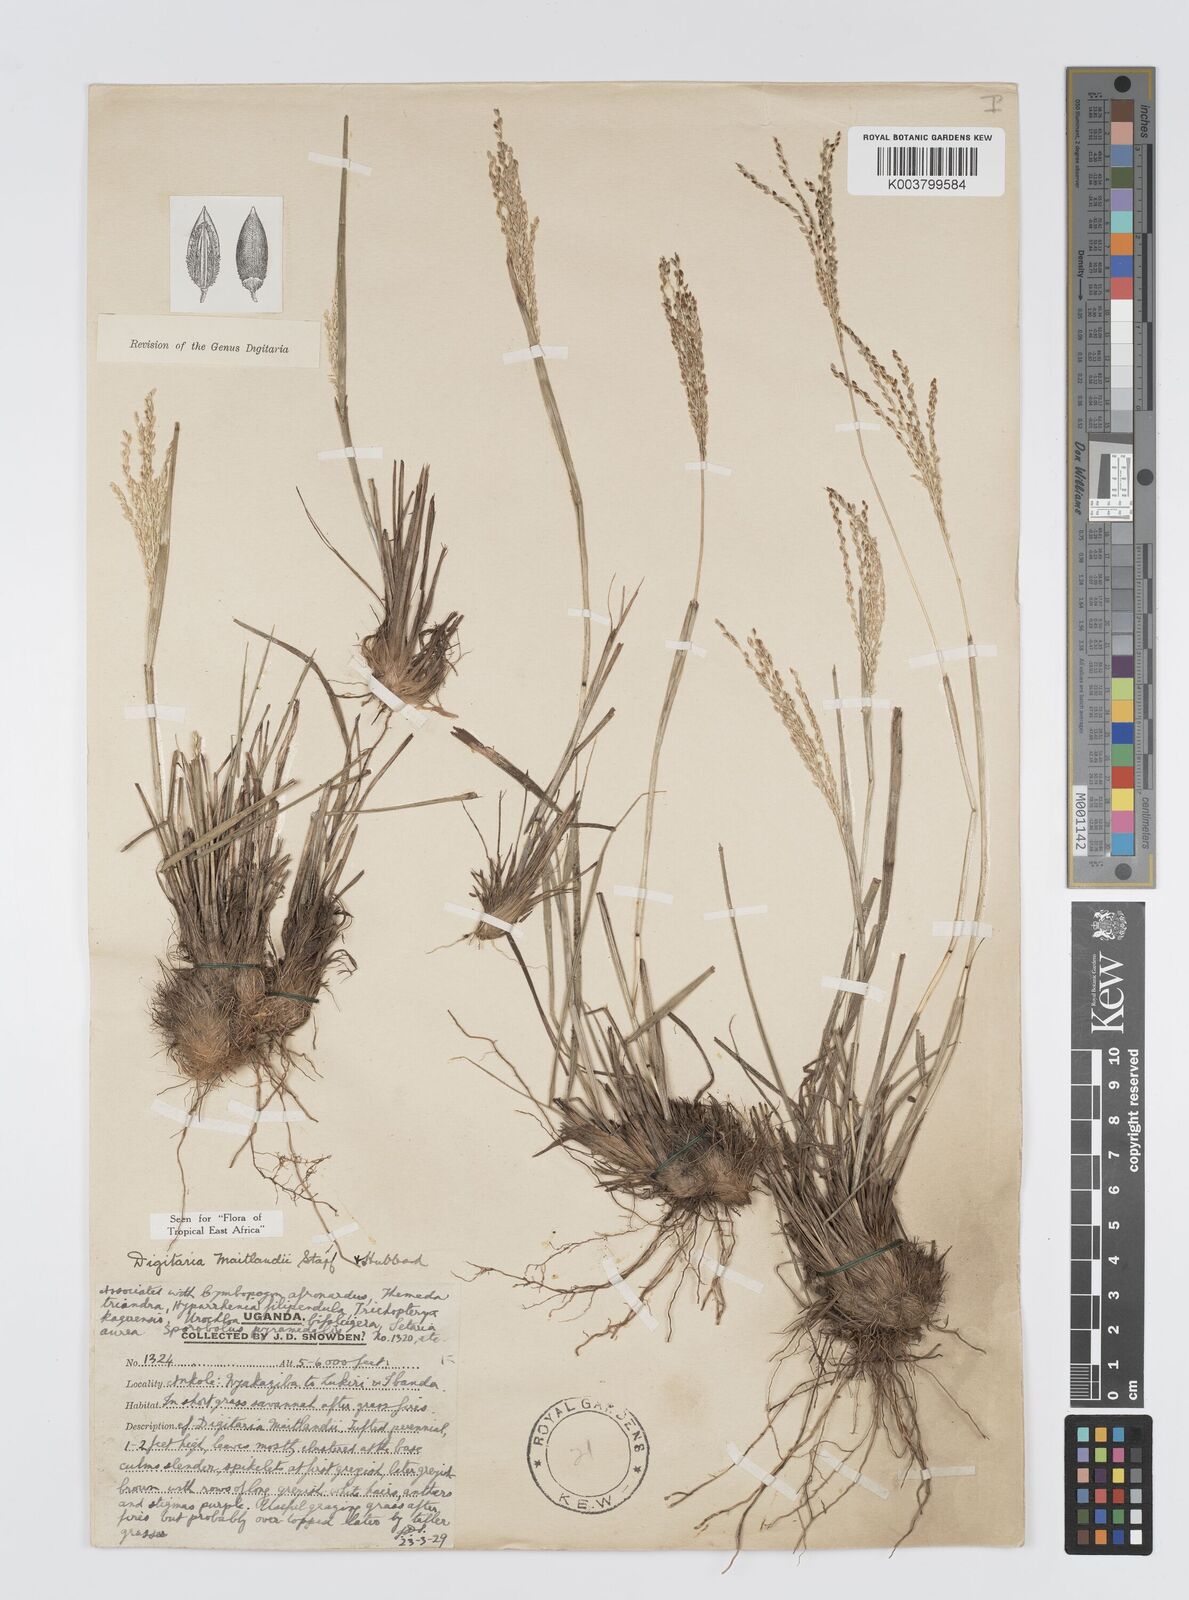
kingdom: Plantae
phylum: Tracheophyta
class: Liliopsida
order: Poales
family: Poaceae
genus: Digitaria
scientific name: Digitaria maitlandii
